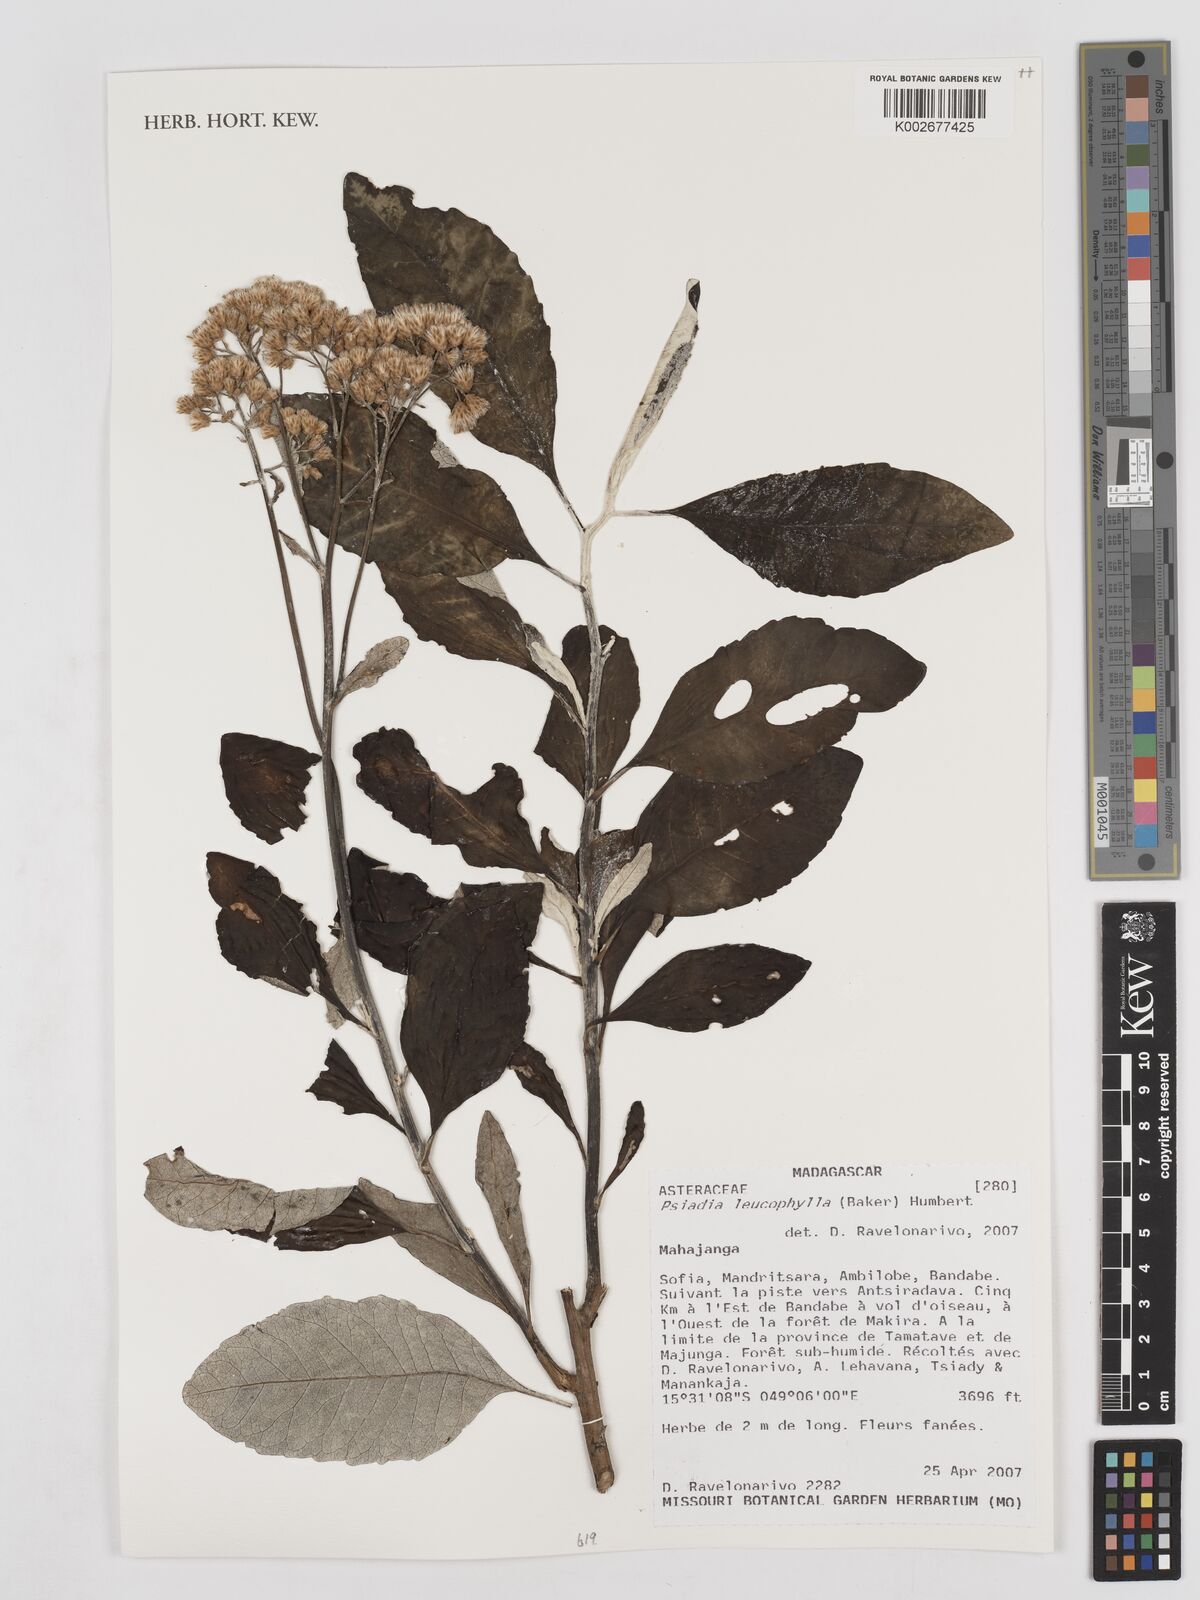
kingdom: Plantae
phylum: Tracheophyta
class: Magnoliopsida
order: Asterales
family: Asteraceae
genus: Psiadia
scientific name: Psiadia leucophylla
